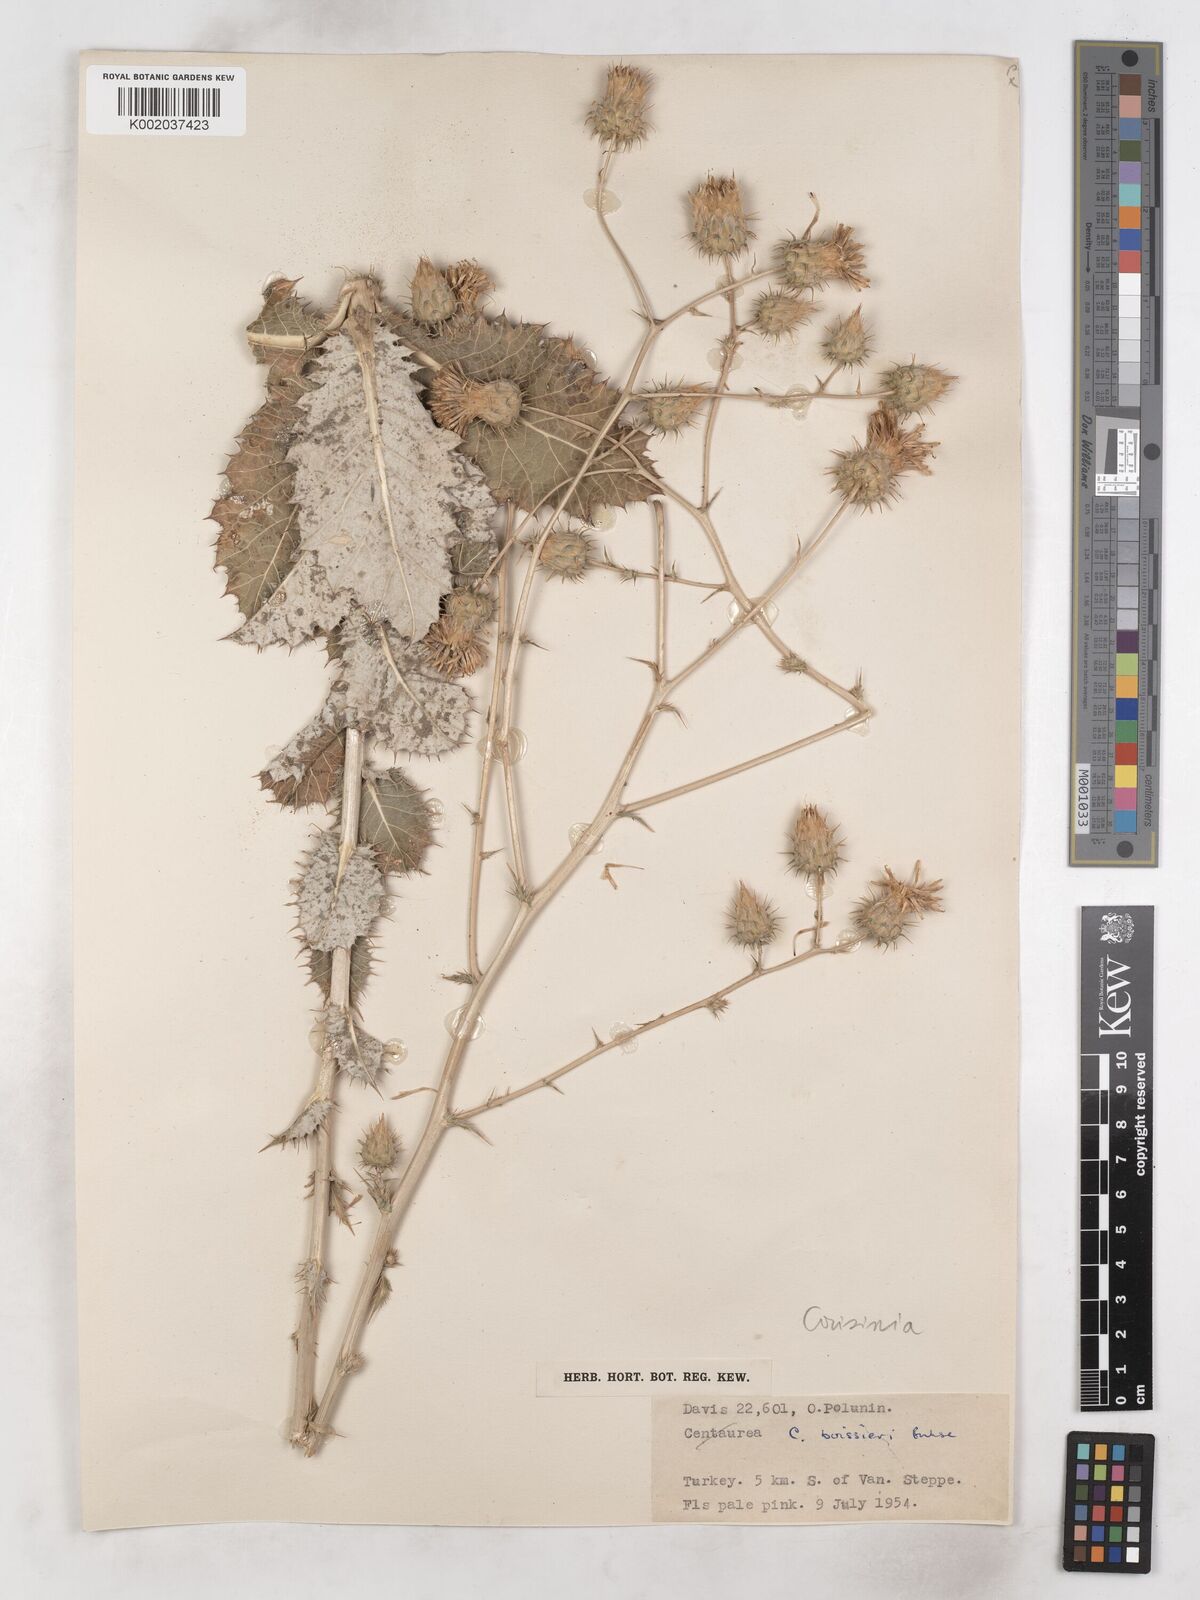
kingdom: Plantae
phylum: Tracheophyta
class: Magnoliopsida
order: Asterales
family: Asteraceae
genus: Cousinia
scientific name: Cousinia boissieri
